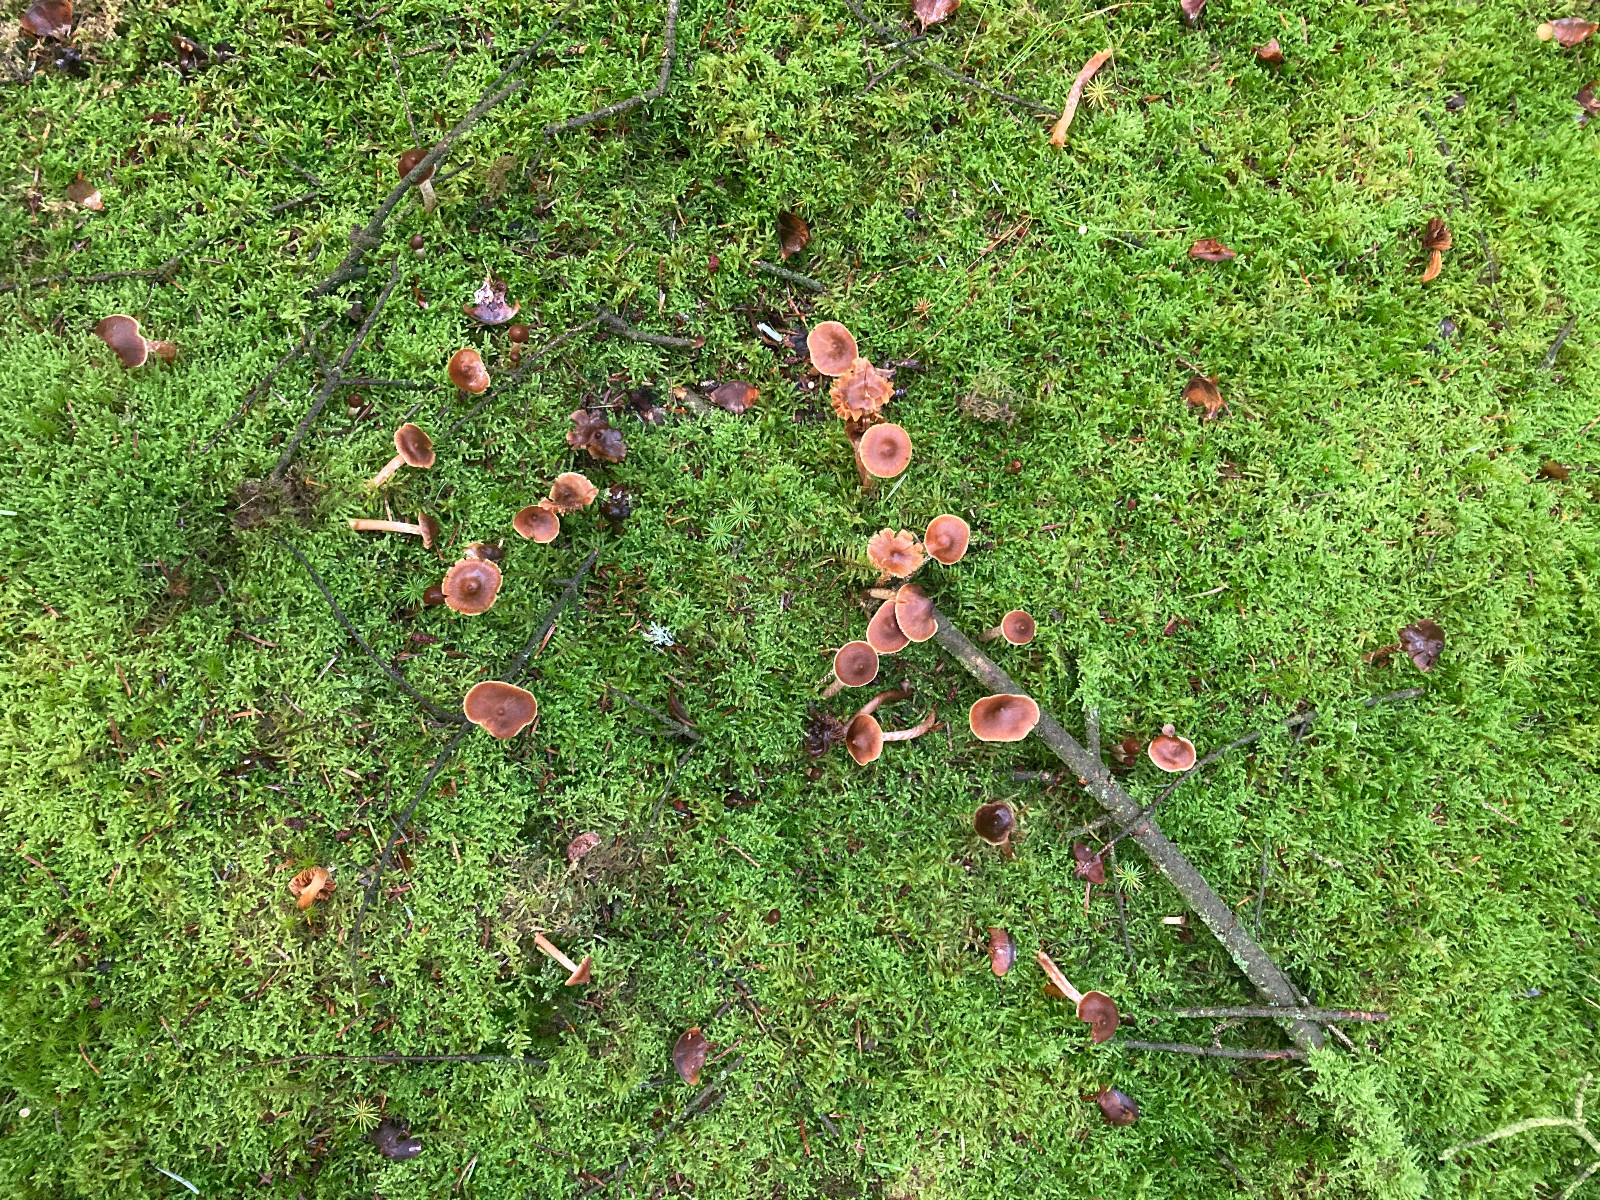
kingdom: Fungi
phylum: Basidiomycota
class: Agaricomycetes
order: Agaricales
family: Cortinariaceae
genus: Cortinarius
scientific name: Cortinarius
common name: hvidægget slørhat
